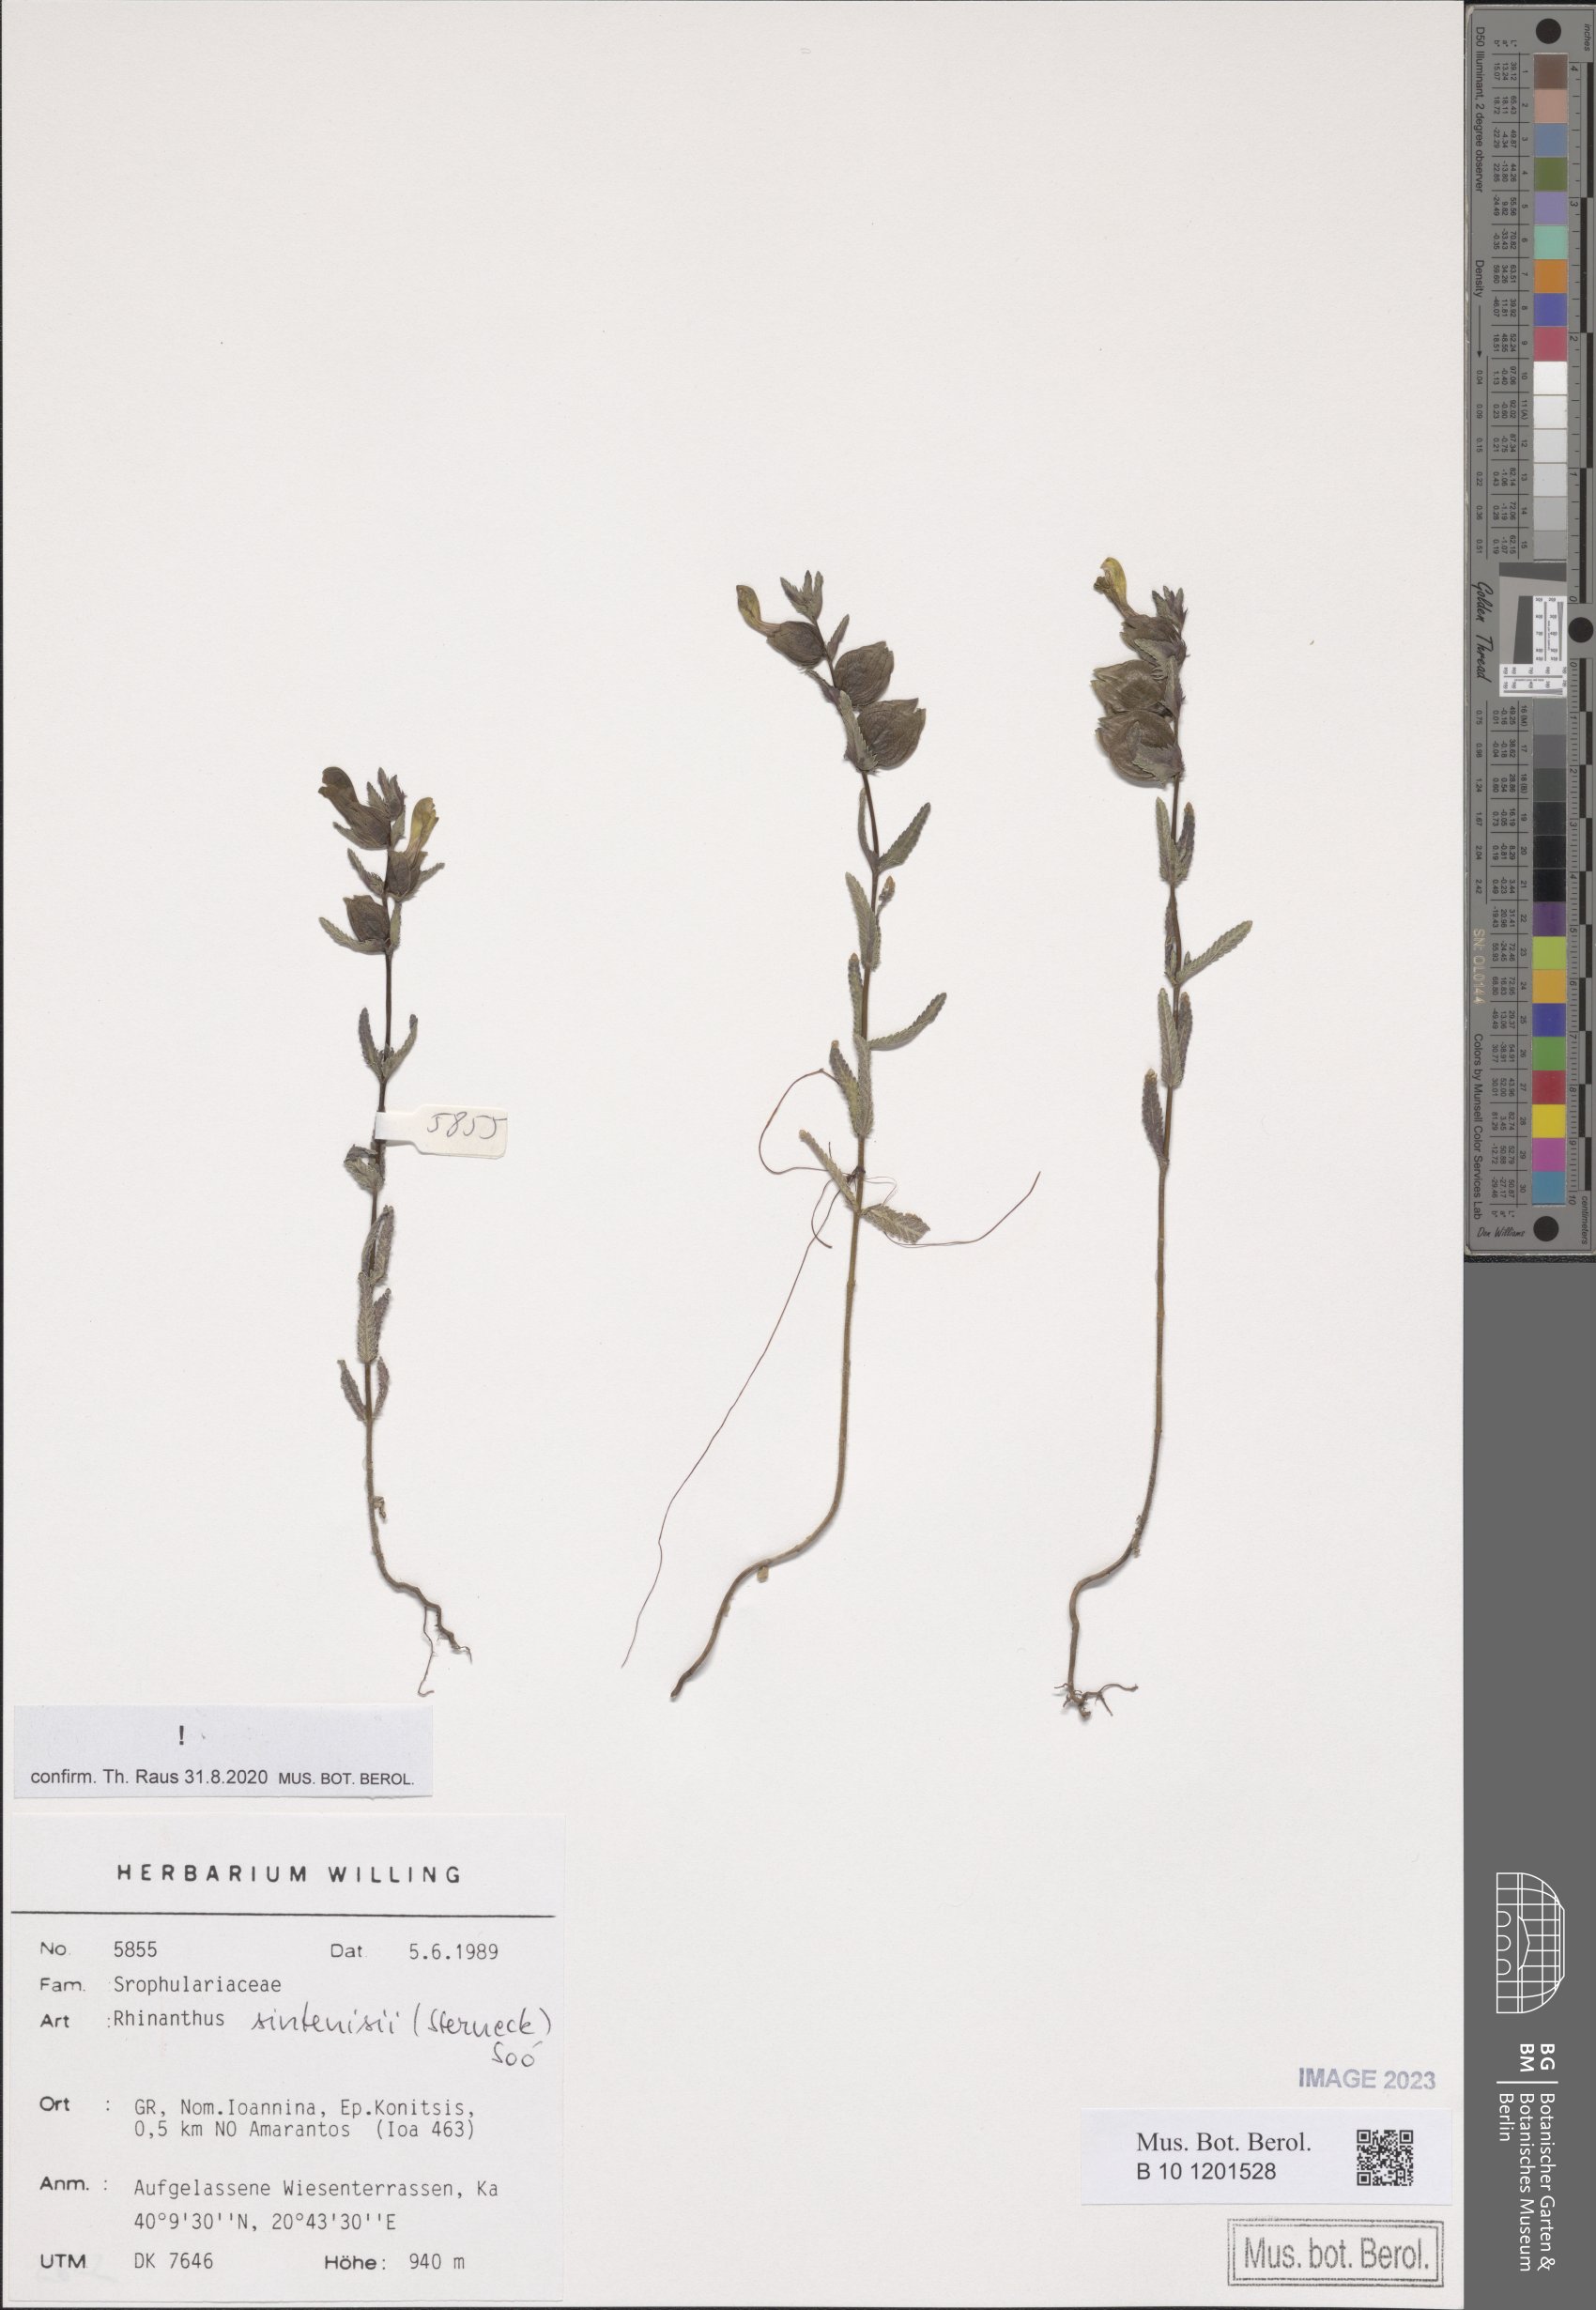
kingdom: Plantae
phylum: Tracheophyta
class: Magnoliopsida
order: Lamiales
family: Orobanchaceae
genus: Rhinanthus
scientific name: Rhinanthus sintenisii
